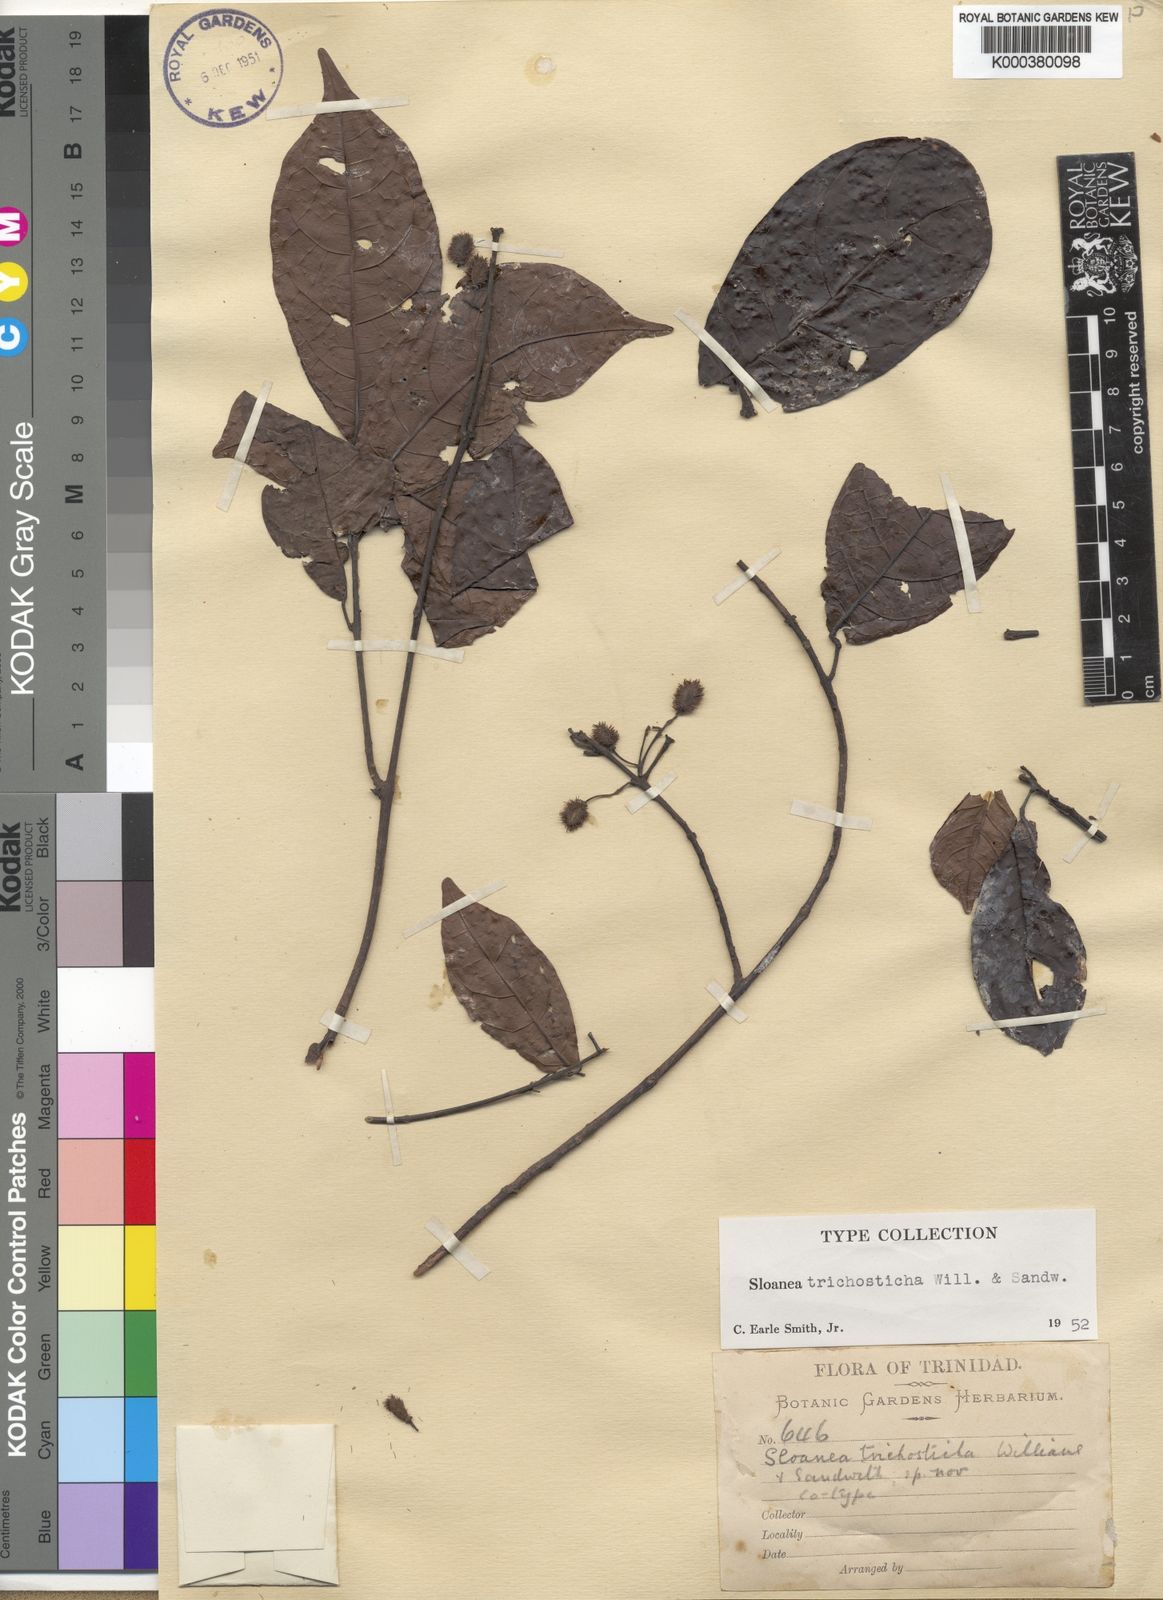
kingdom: Plantae
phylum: Tracheophyta
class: Magnoliopsida
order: Oxalidales
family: Elaeocarpaceae
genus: Sloanea
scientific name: Sloanea trichosticha
